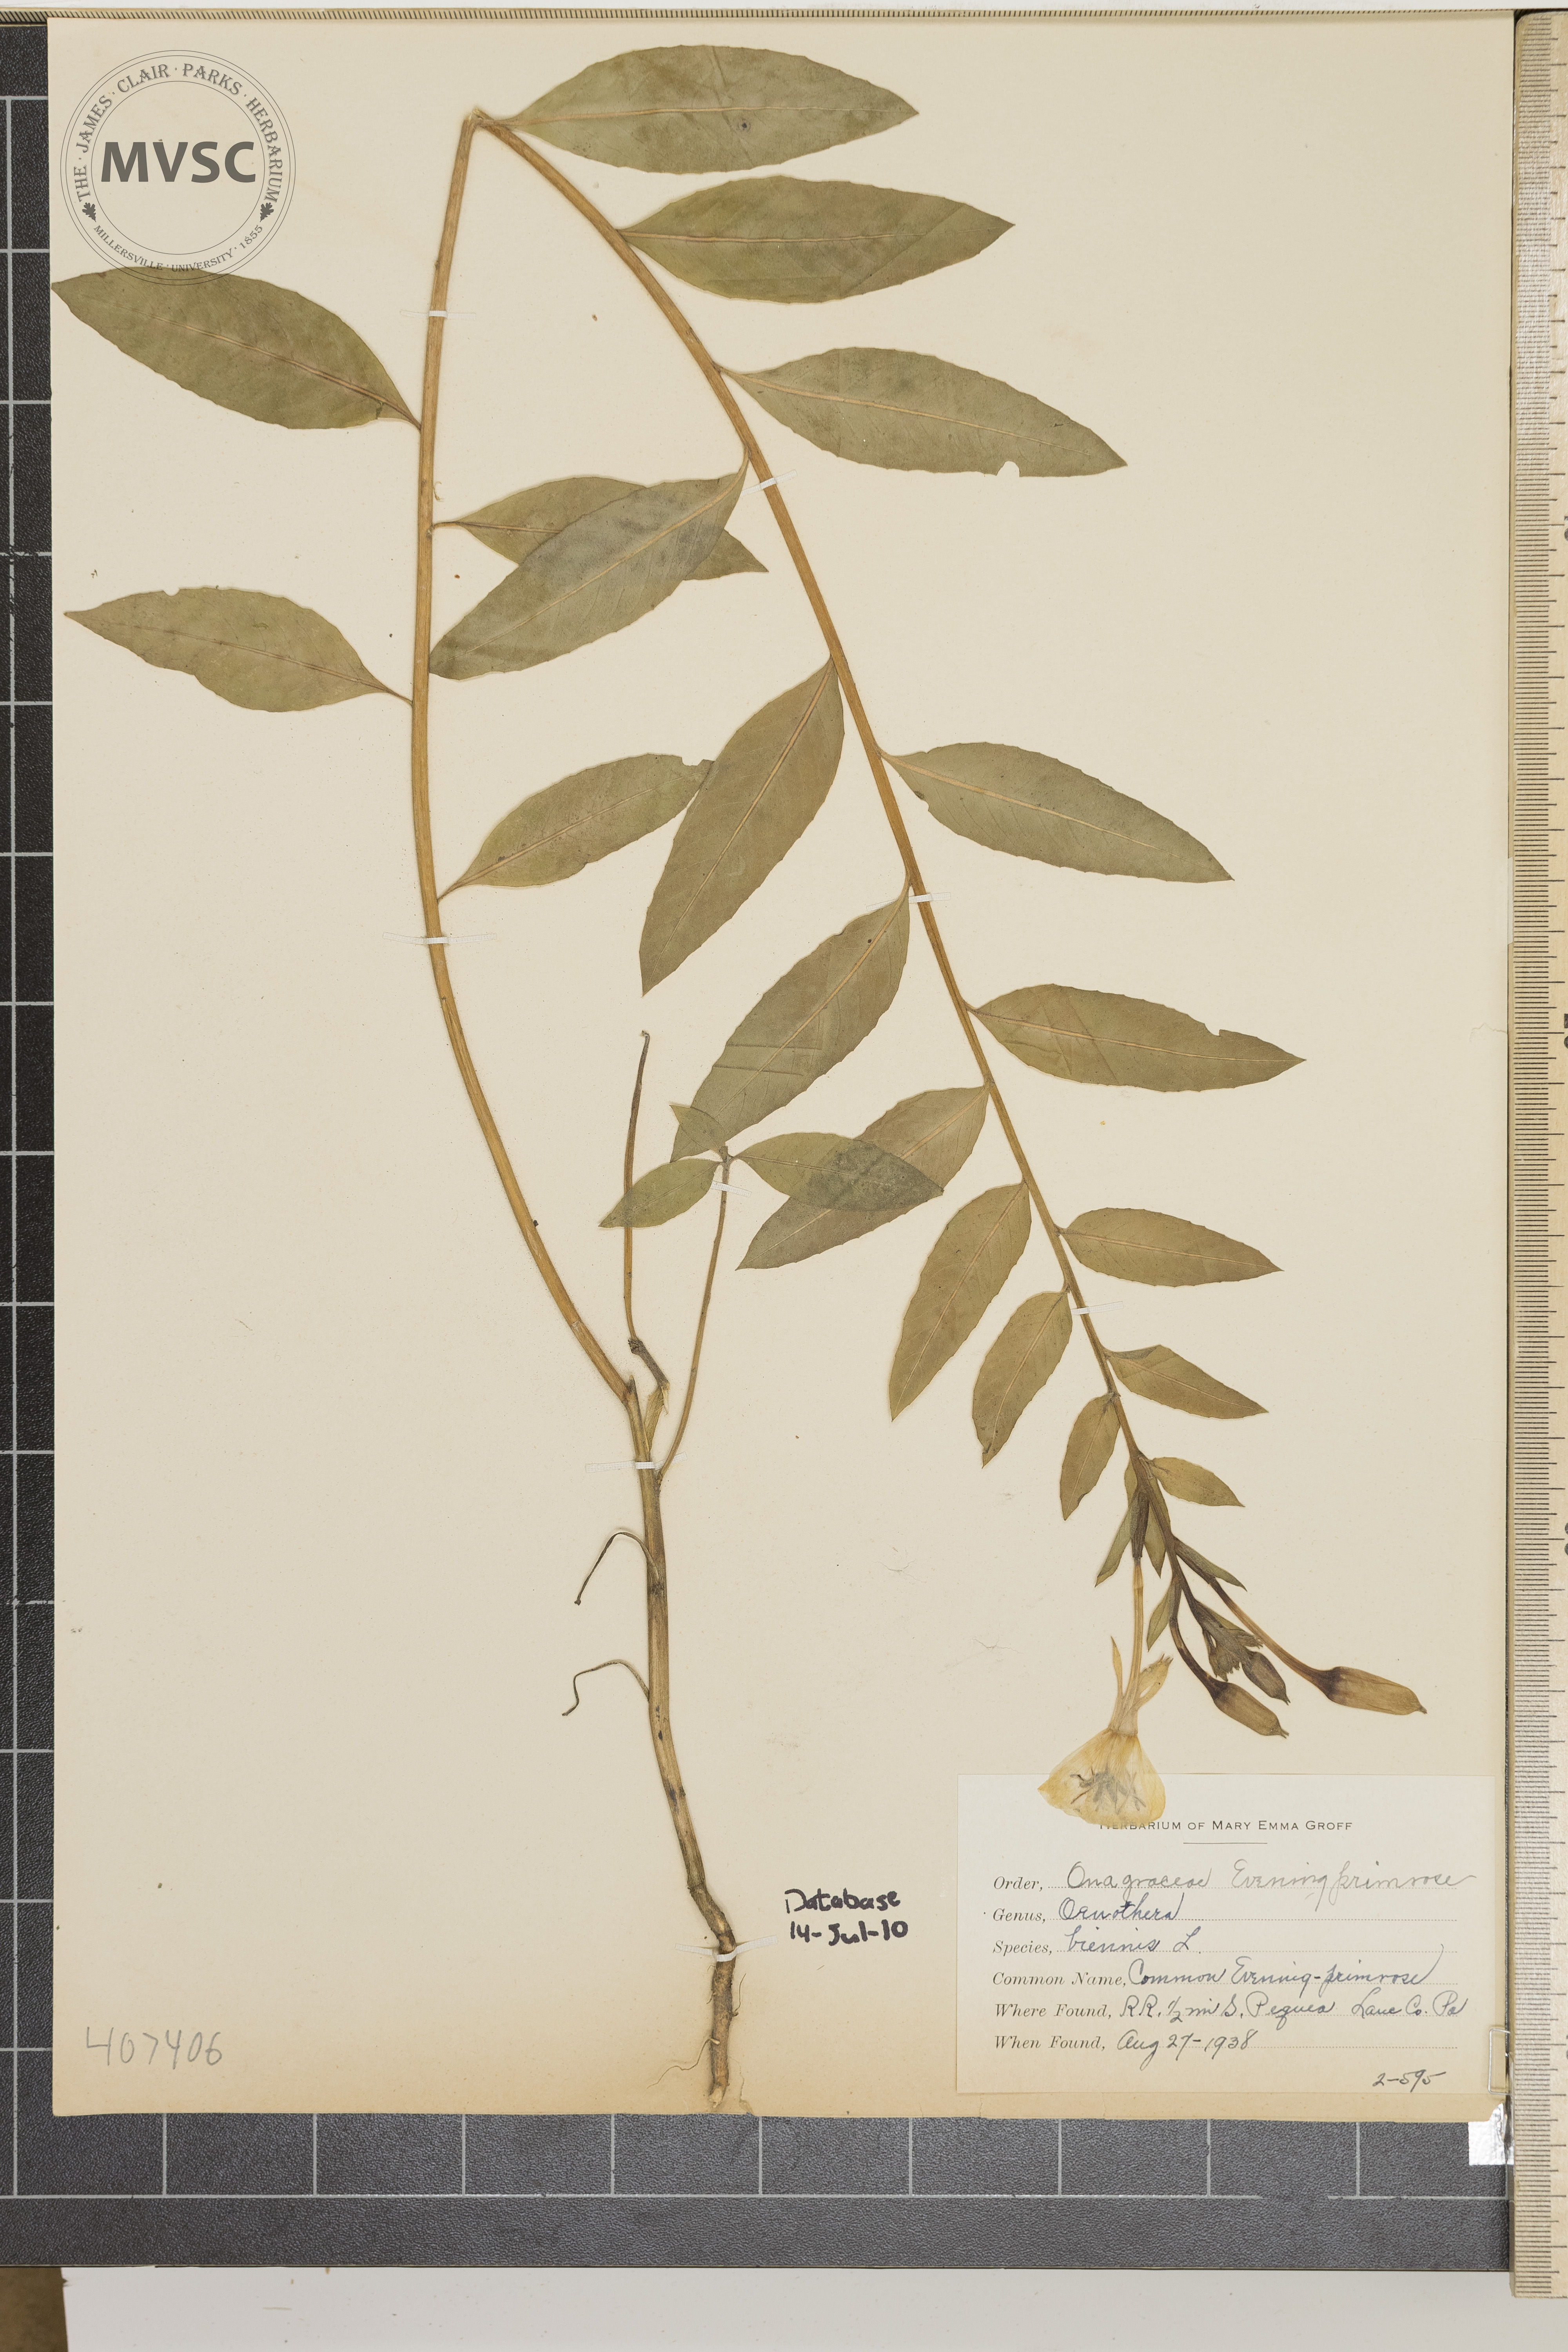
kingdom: Plantae
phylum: Tracheophyta
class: Magnoliopsida
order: Myrtales
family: Onagraceae
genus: Oenothera
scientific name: Oenothera biennis
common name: Common Evening-primrose
